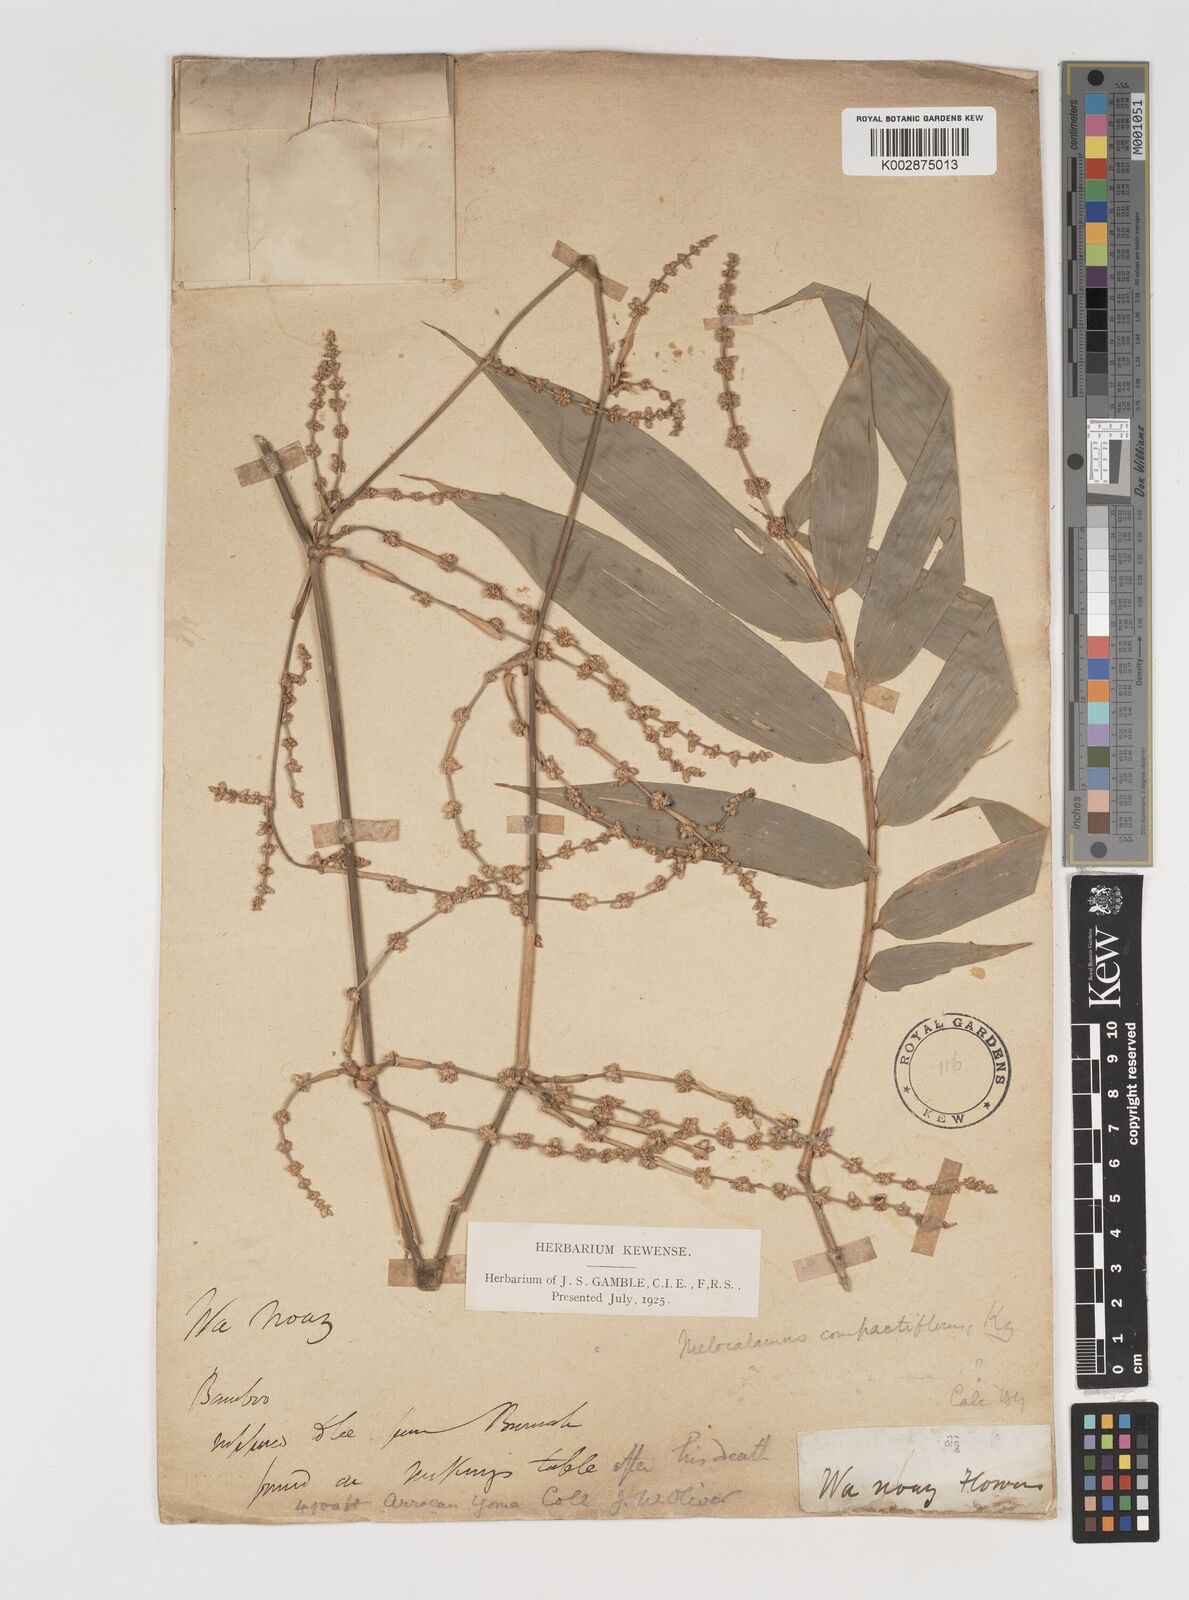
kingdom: Plantae
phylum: Tracheophyta
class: Liliopsida
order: Poales
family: Poaceae
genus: Melocalamus
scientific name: Melocalamus compactiflorus
